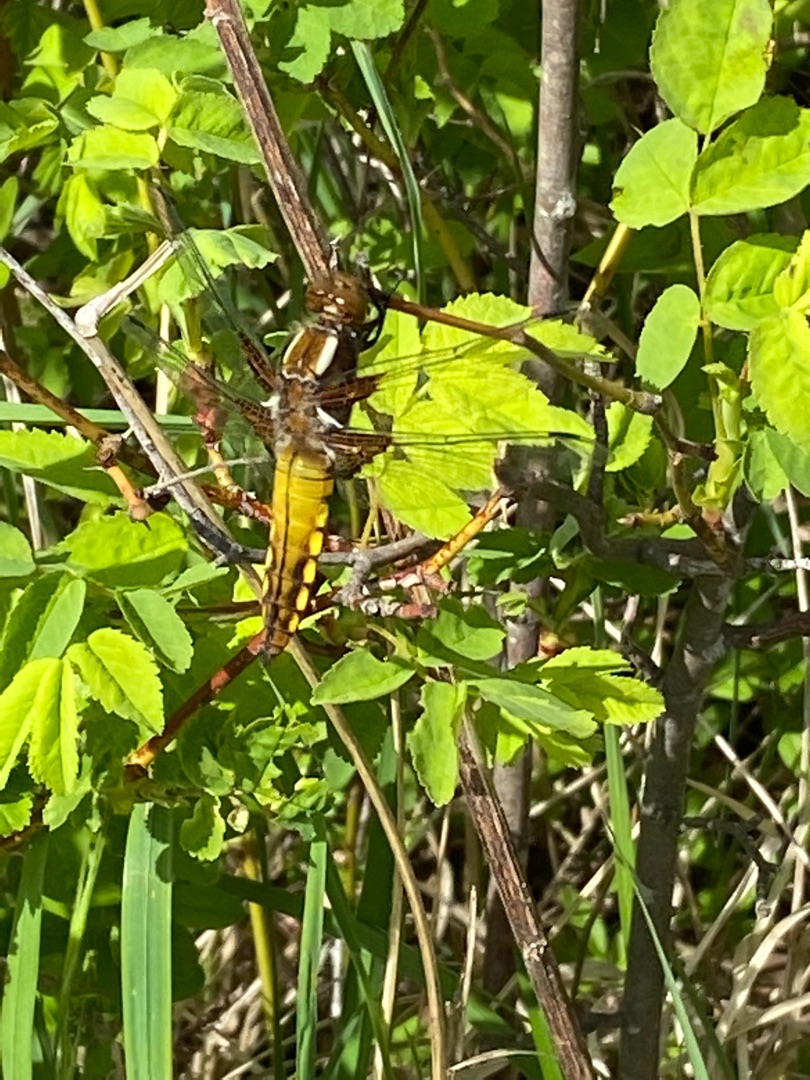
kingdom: Animalia
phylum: Arthropoda
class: Insecta
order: Odonata
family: Libellulidae
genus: Libellula
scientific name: Libellula depressa
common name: Blå libel
